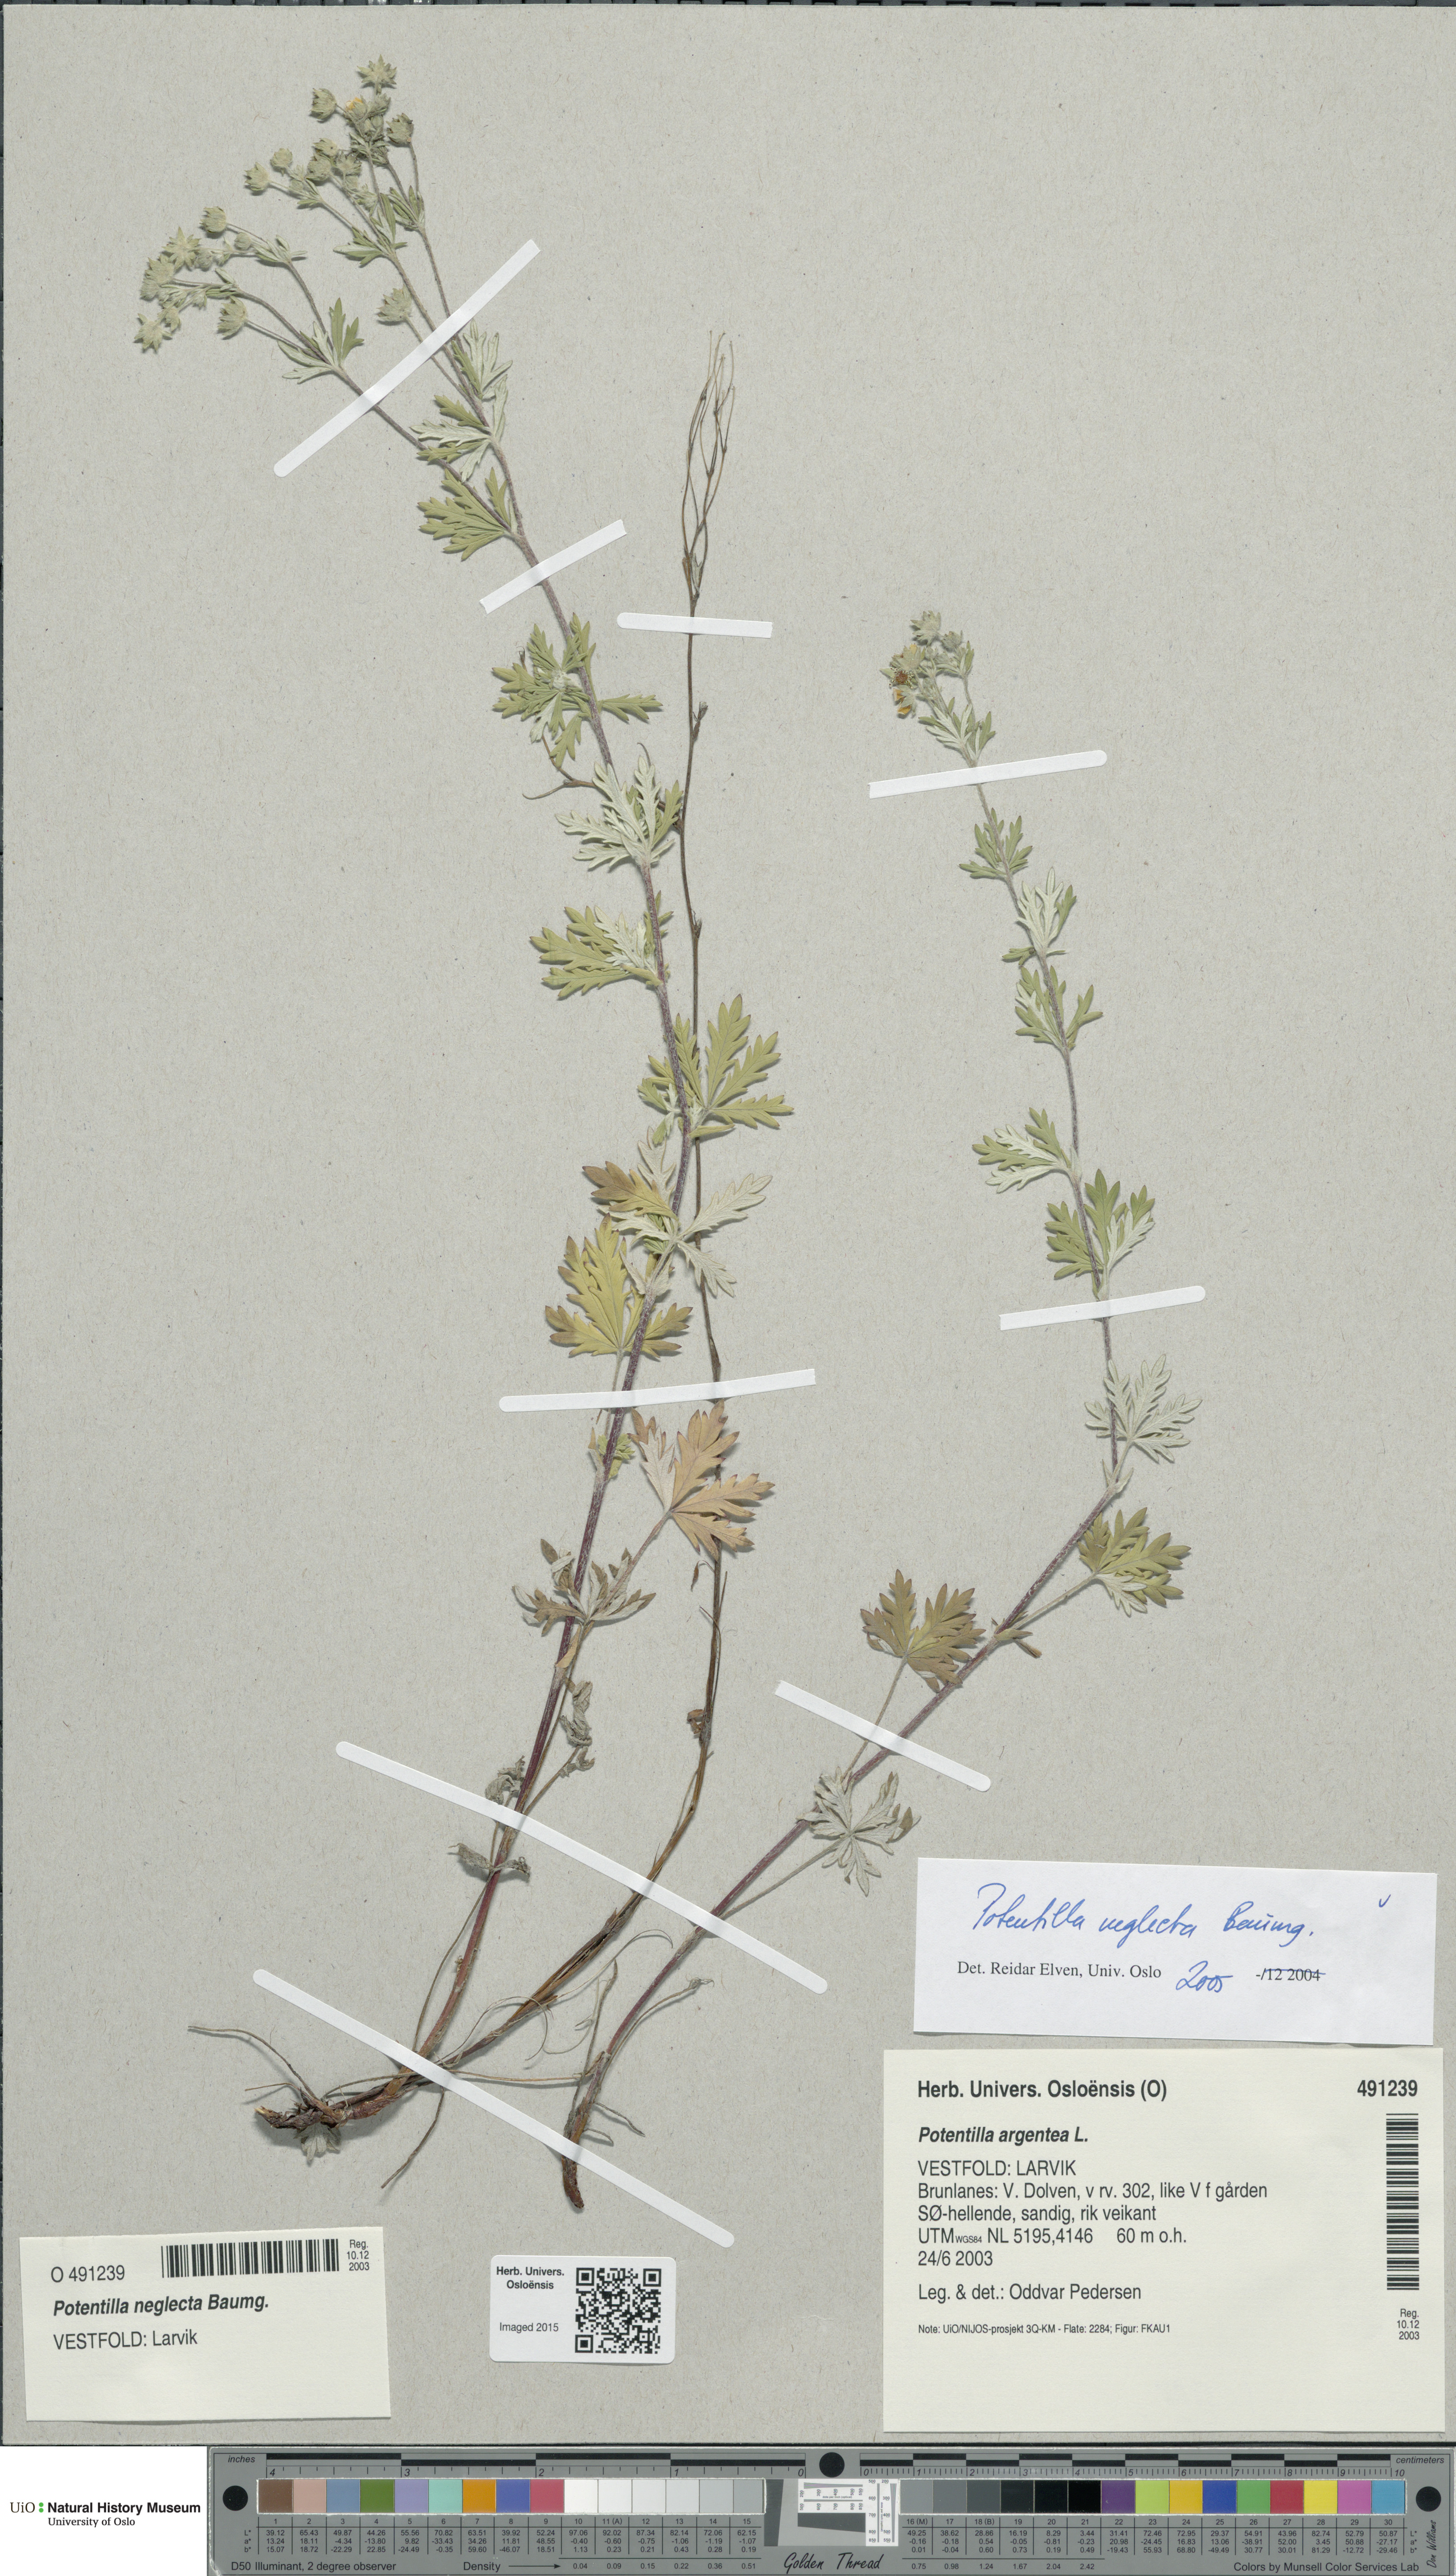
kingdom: Plantae
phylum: Tracheophyta
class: Magnoliopsida
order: Rosales
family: Rosaceae
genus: Potentilla
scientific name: Potentilla neglecta
